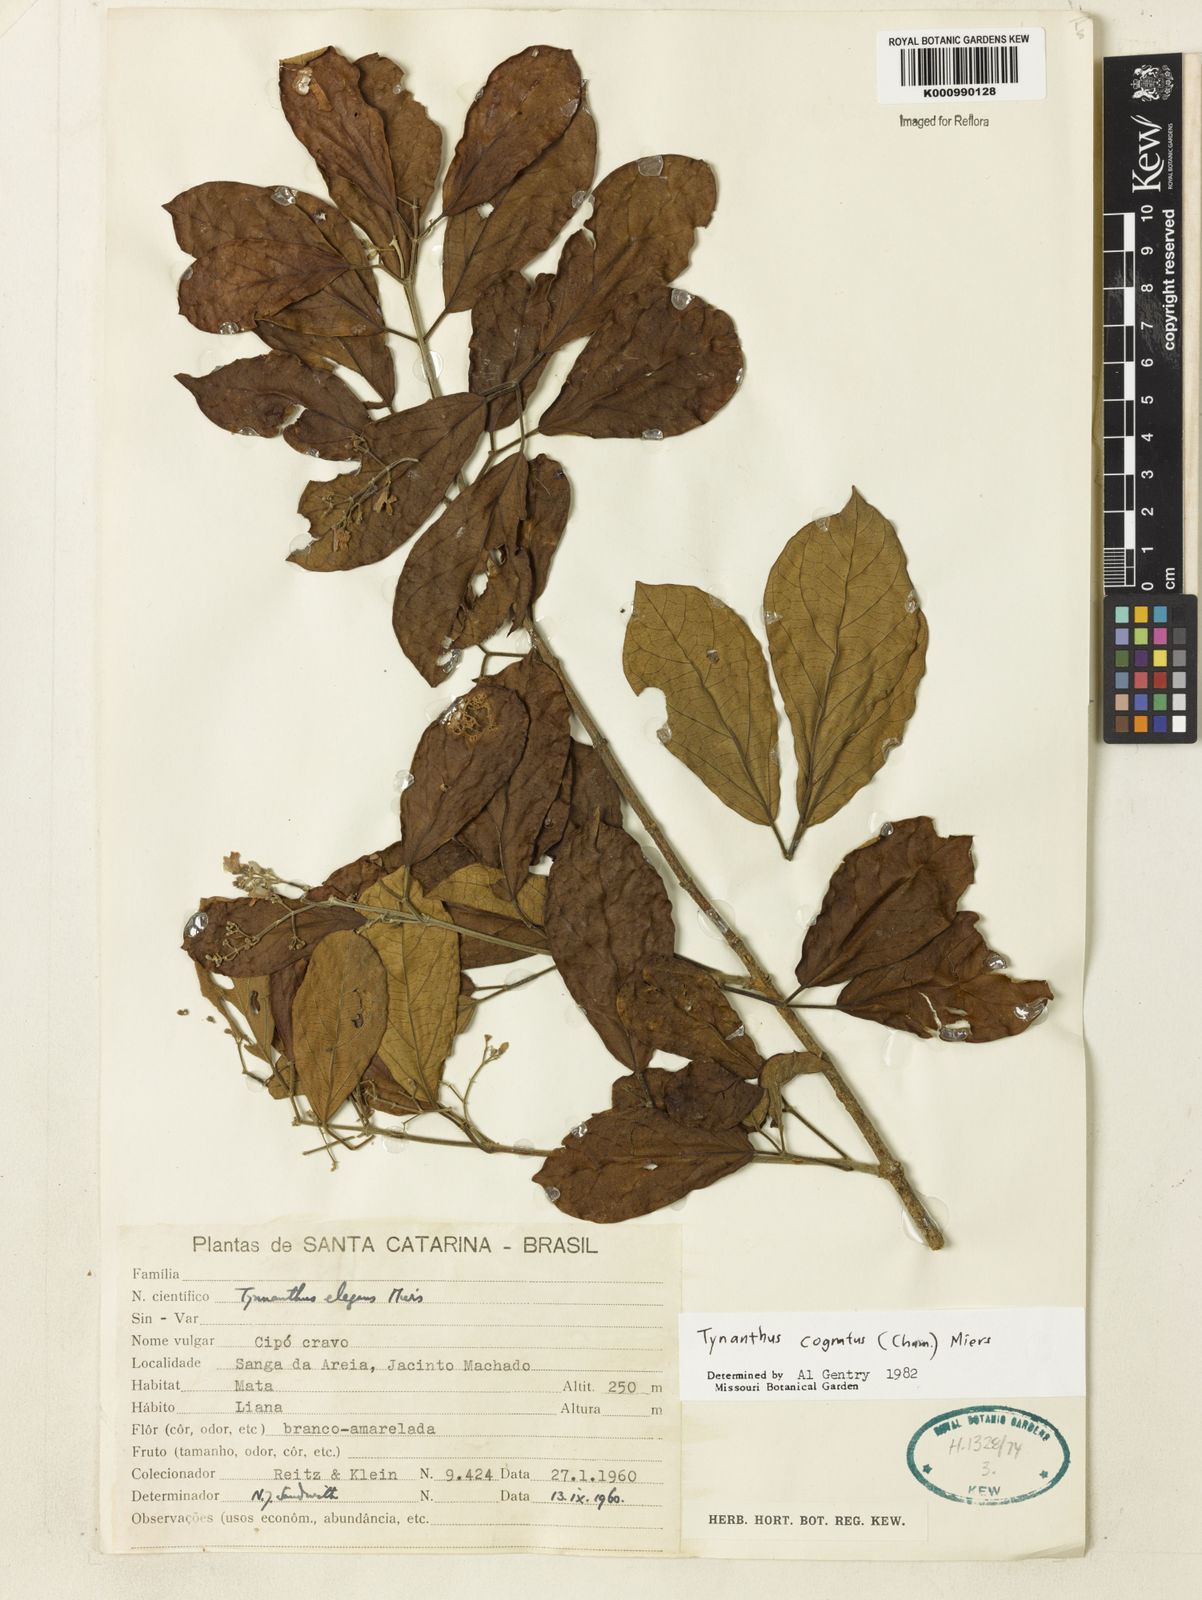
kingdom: Plantae
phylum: Tracheophyta
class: Magnoliopsida
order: Lamiales
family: Bignoniaceae
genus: Tynanthus
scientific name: Tynanthus cognatus
